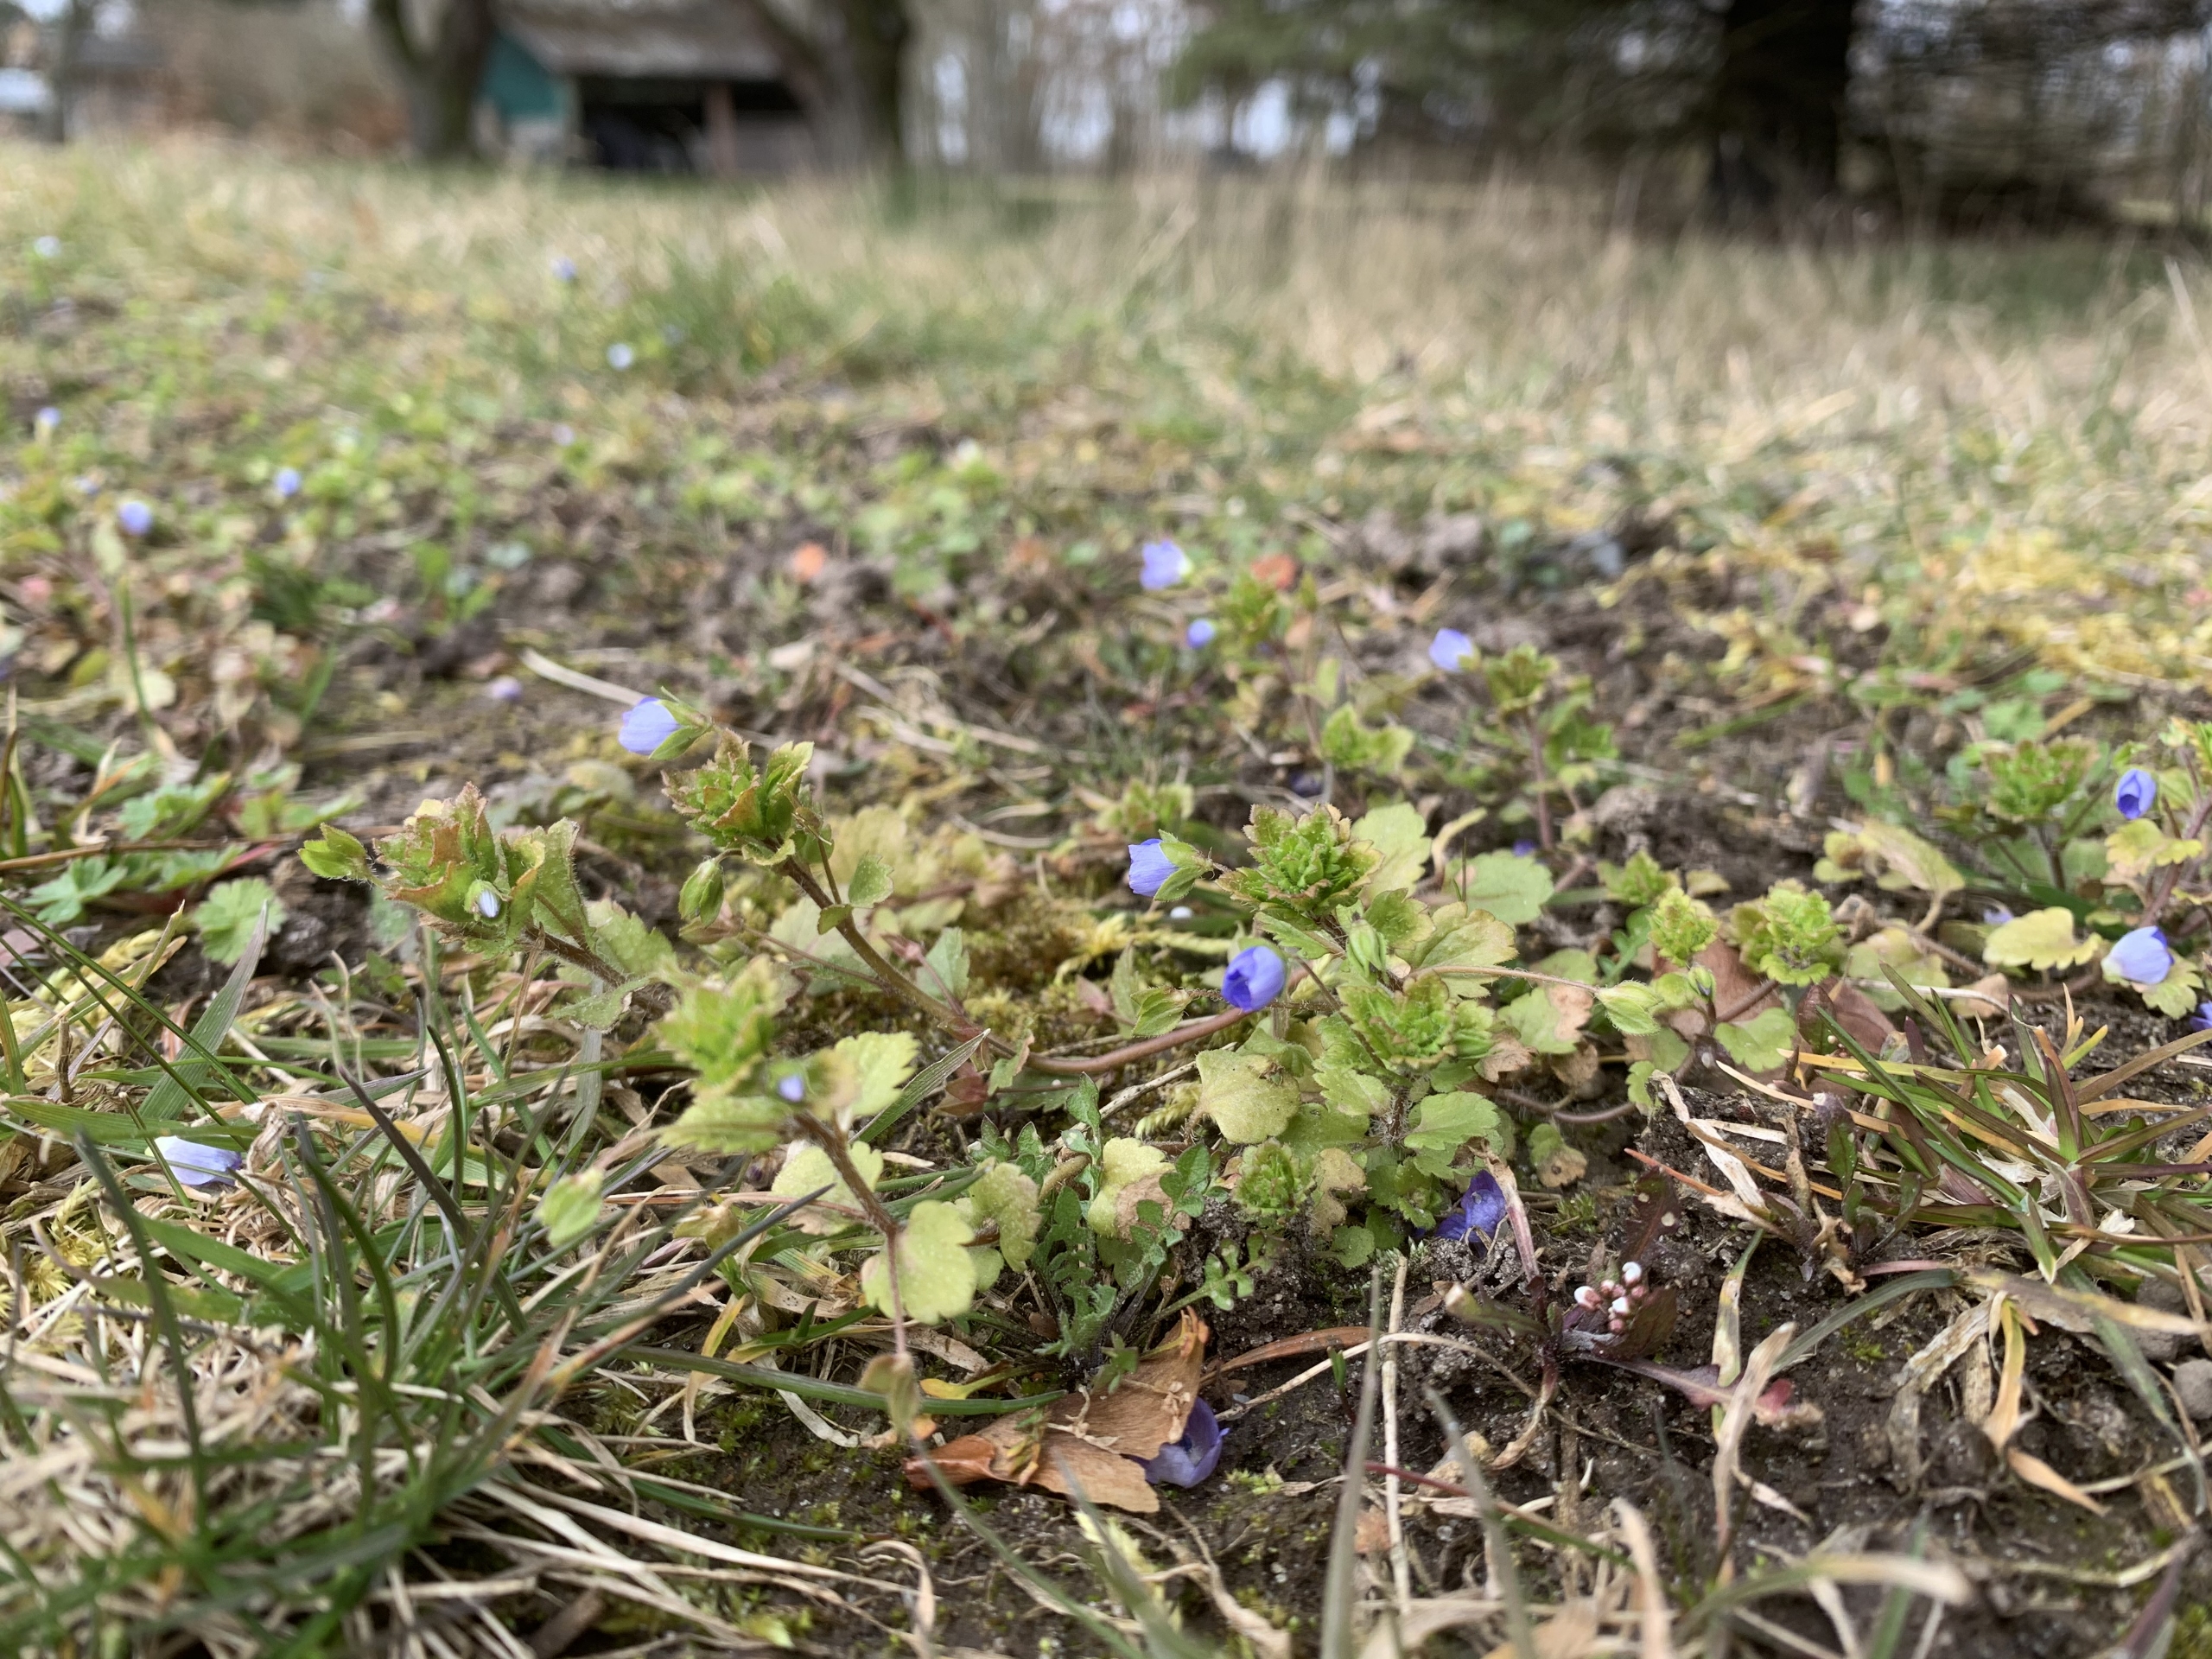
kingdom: Plantae
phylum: Tracheophyta
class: Magnoliopsida
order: Lamiales
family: Plantaginaceae
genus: Veronica
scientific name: Veronica persica
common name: Storkronet ærenpris
